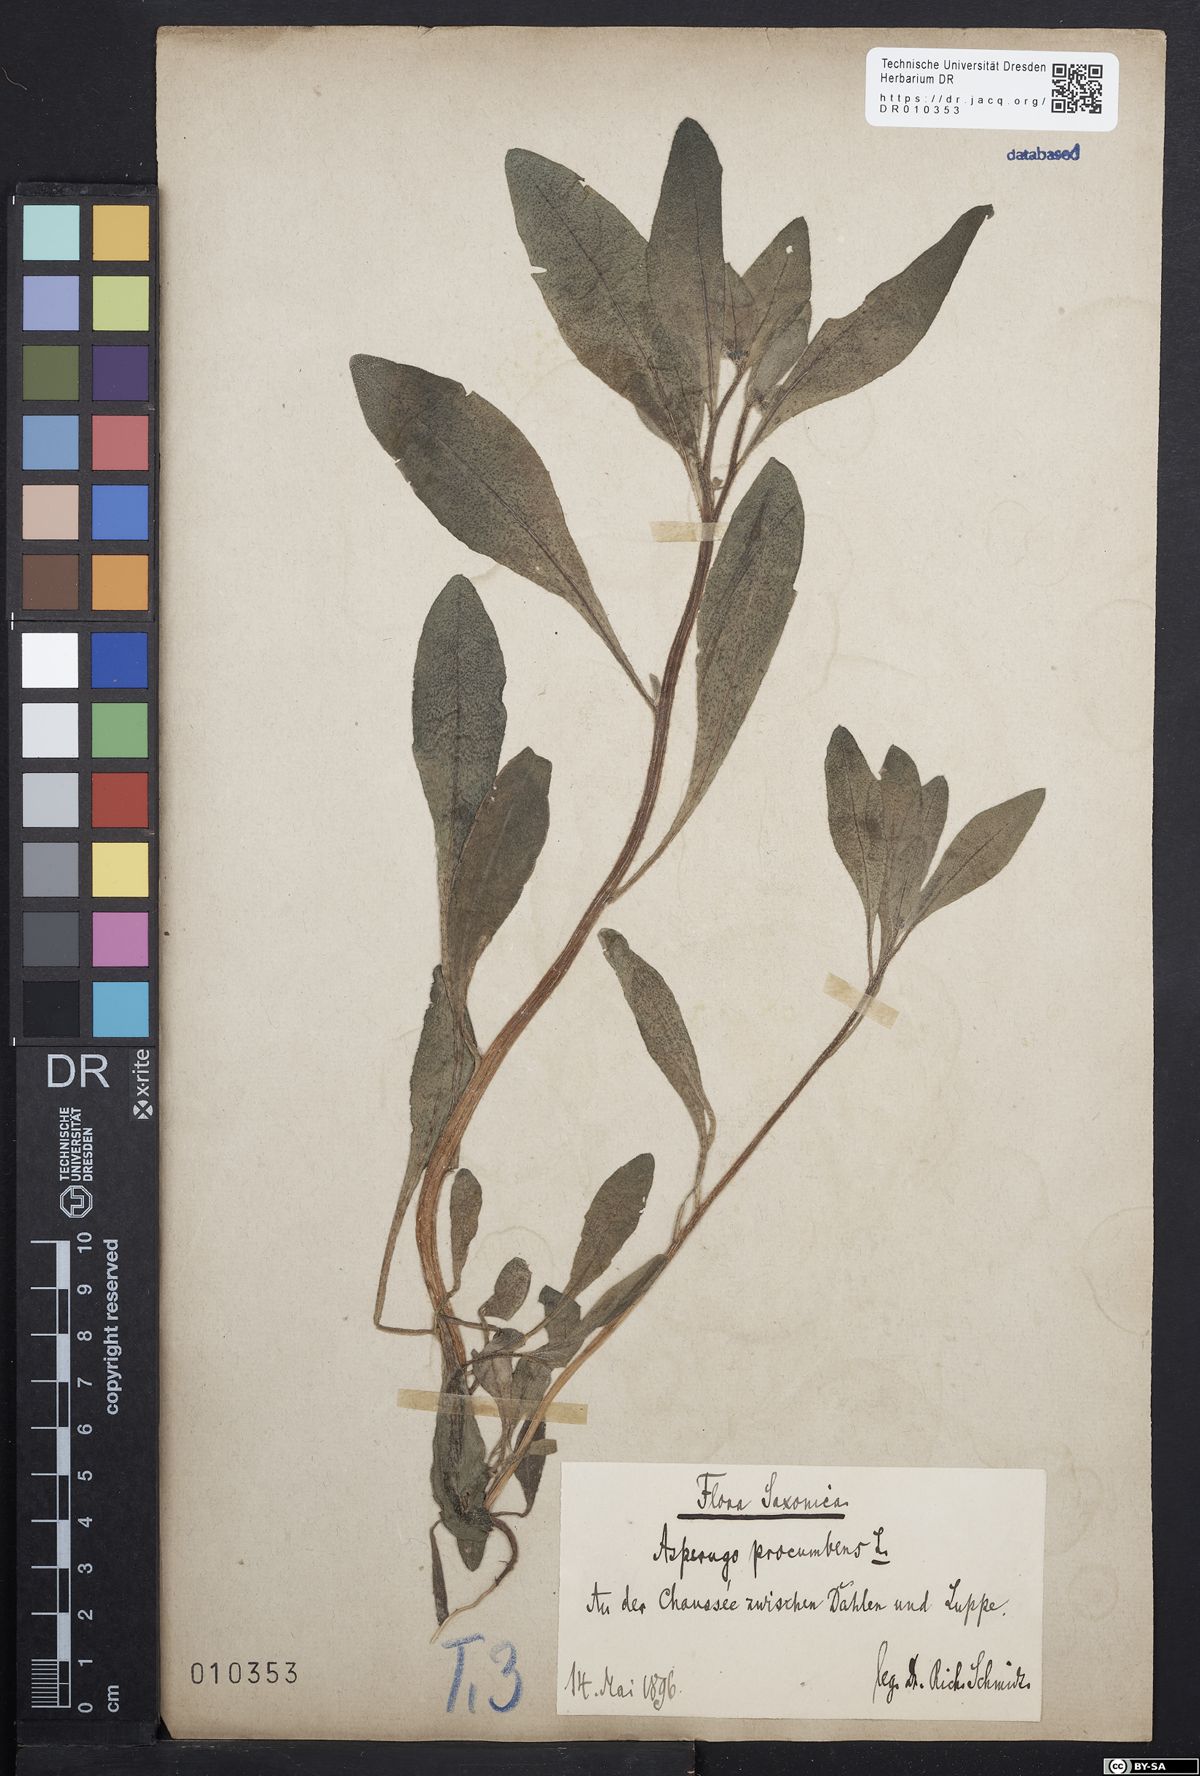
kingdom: Plantae
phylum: Tracheophyta
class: Magnoliopsida
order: Boraginales
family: Boraginaceae
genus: Asperugo
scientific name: Asperugo procumbens
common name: Madwort
